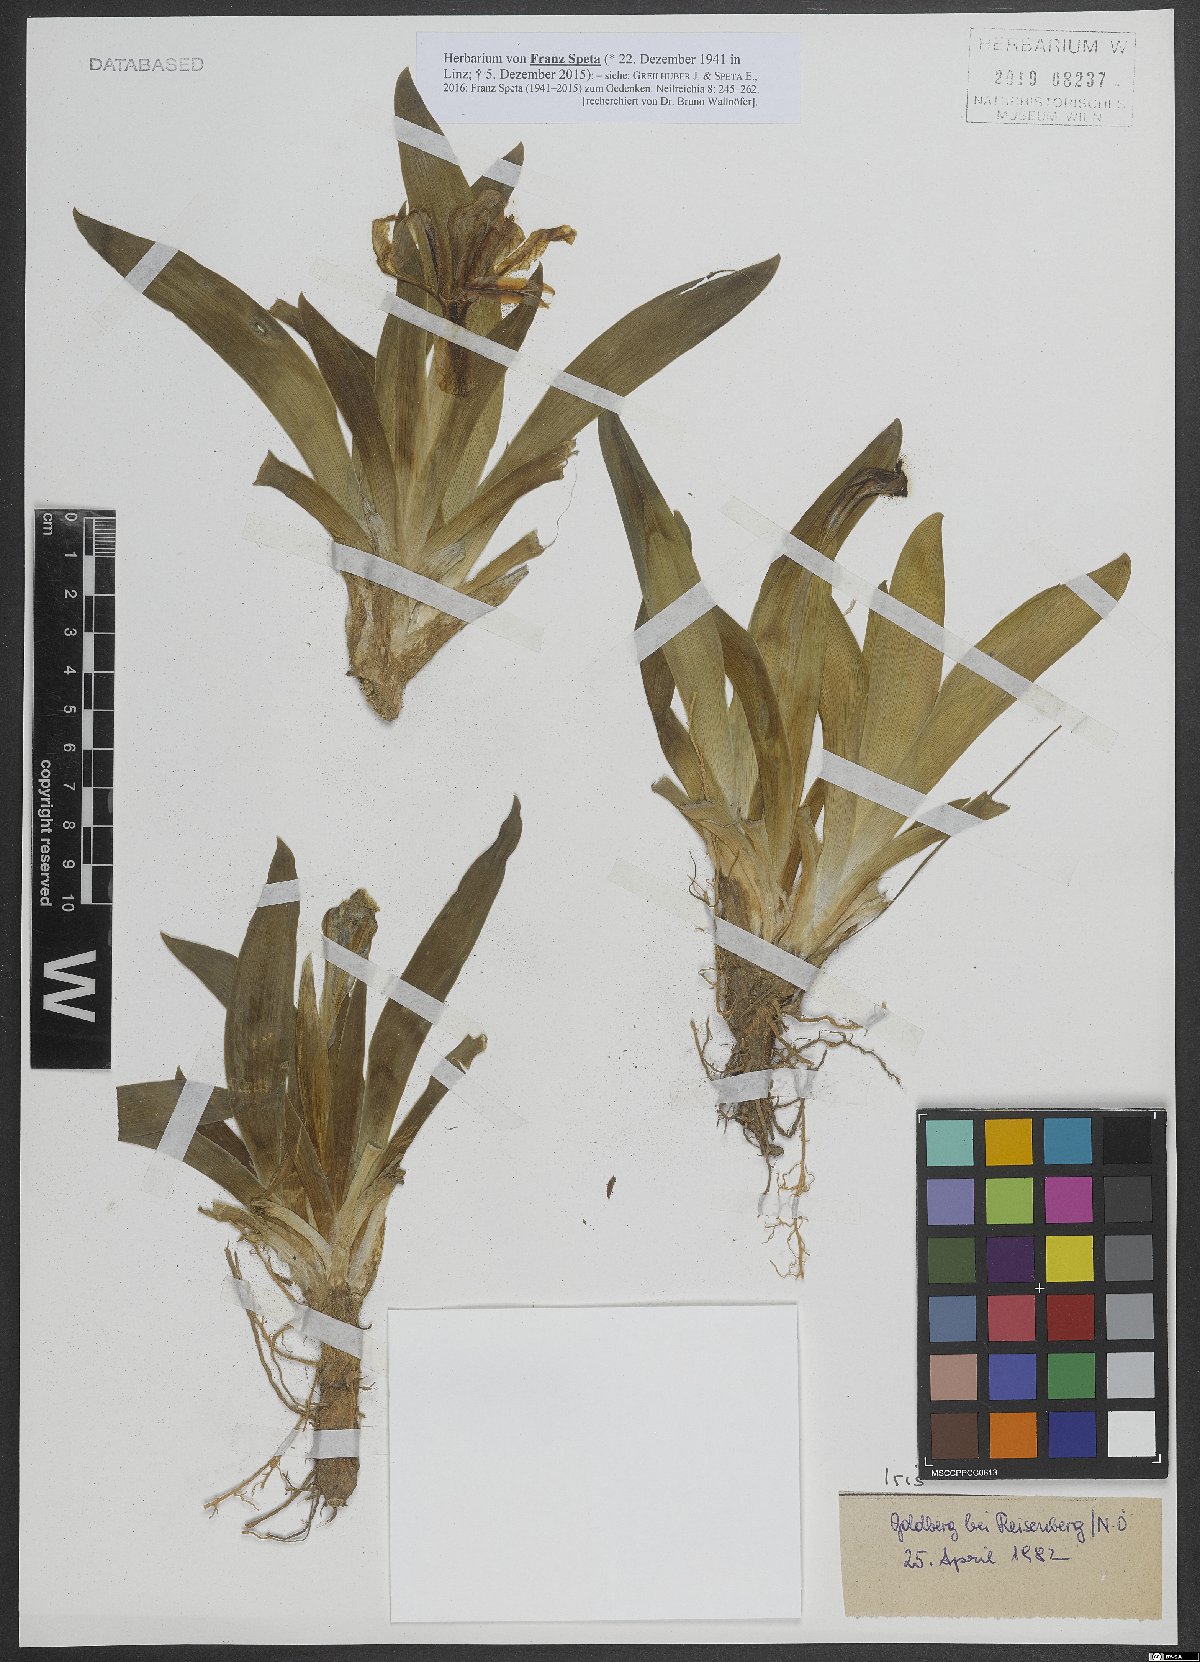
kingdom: Plantae
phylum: Tracheophyta
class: Liliopsida
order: Asparagales
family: Iridaceae
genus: Iris
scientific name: Iris
